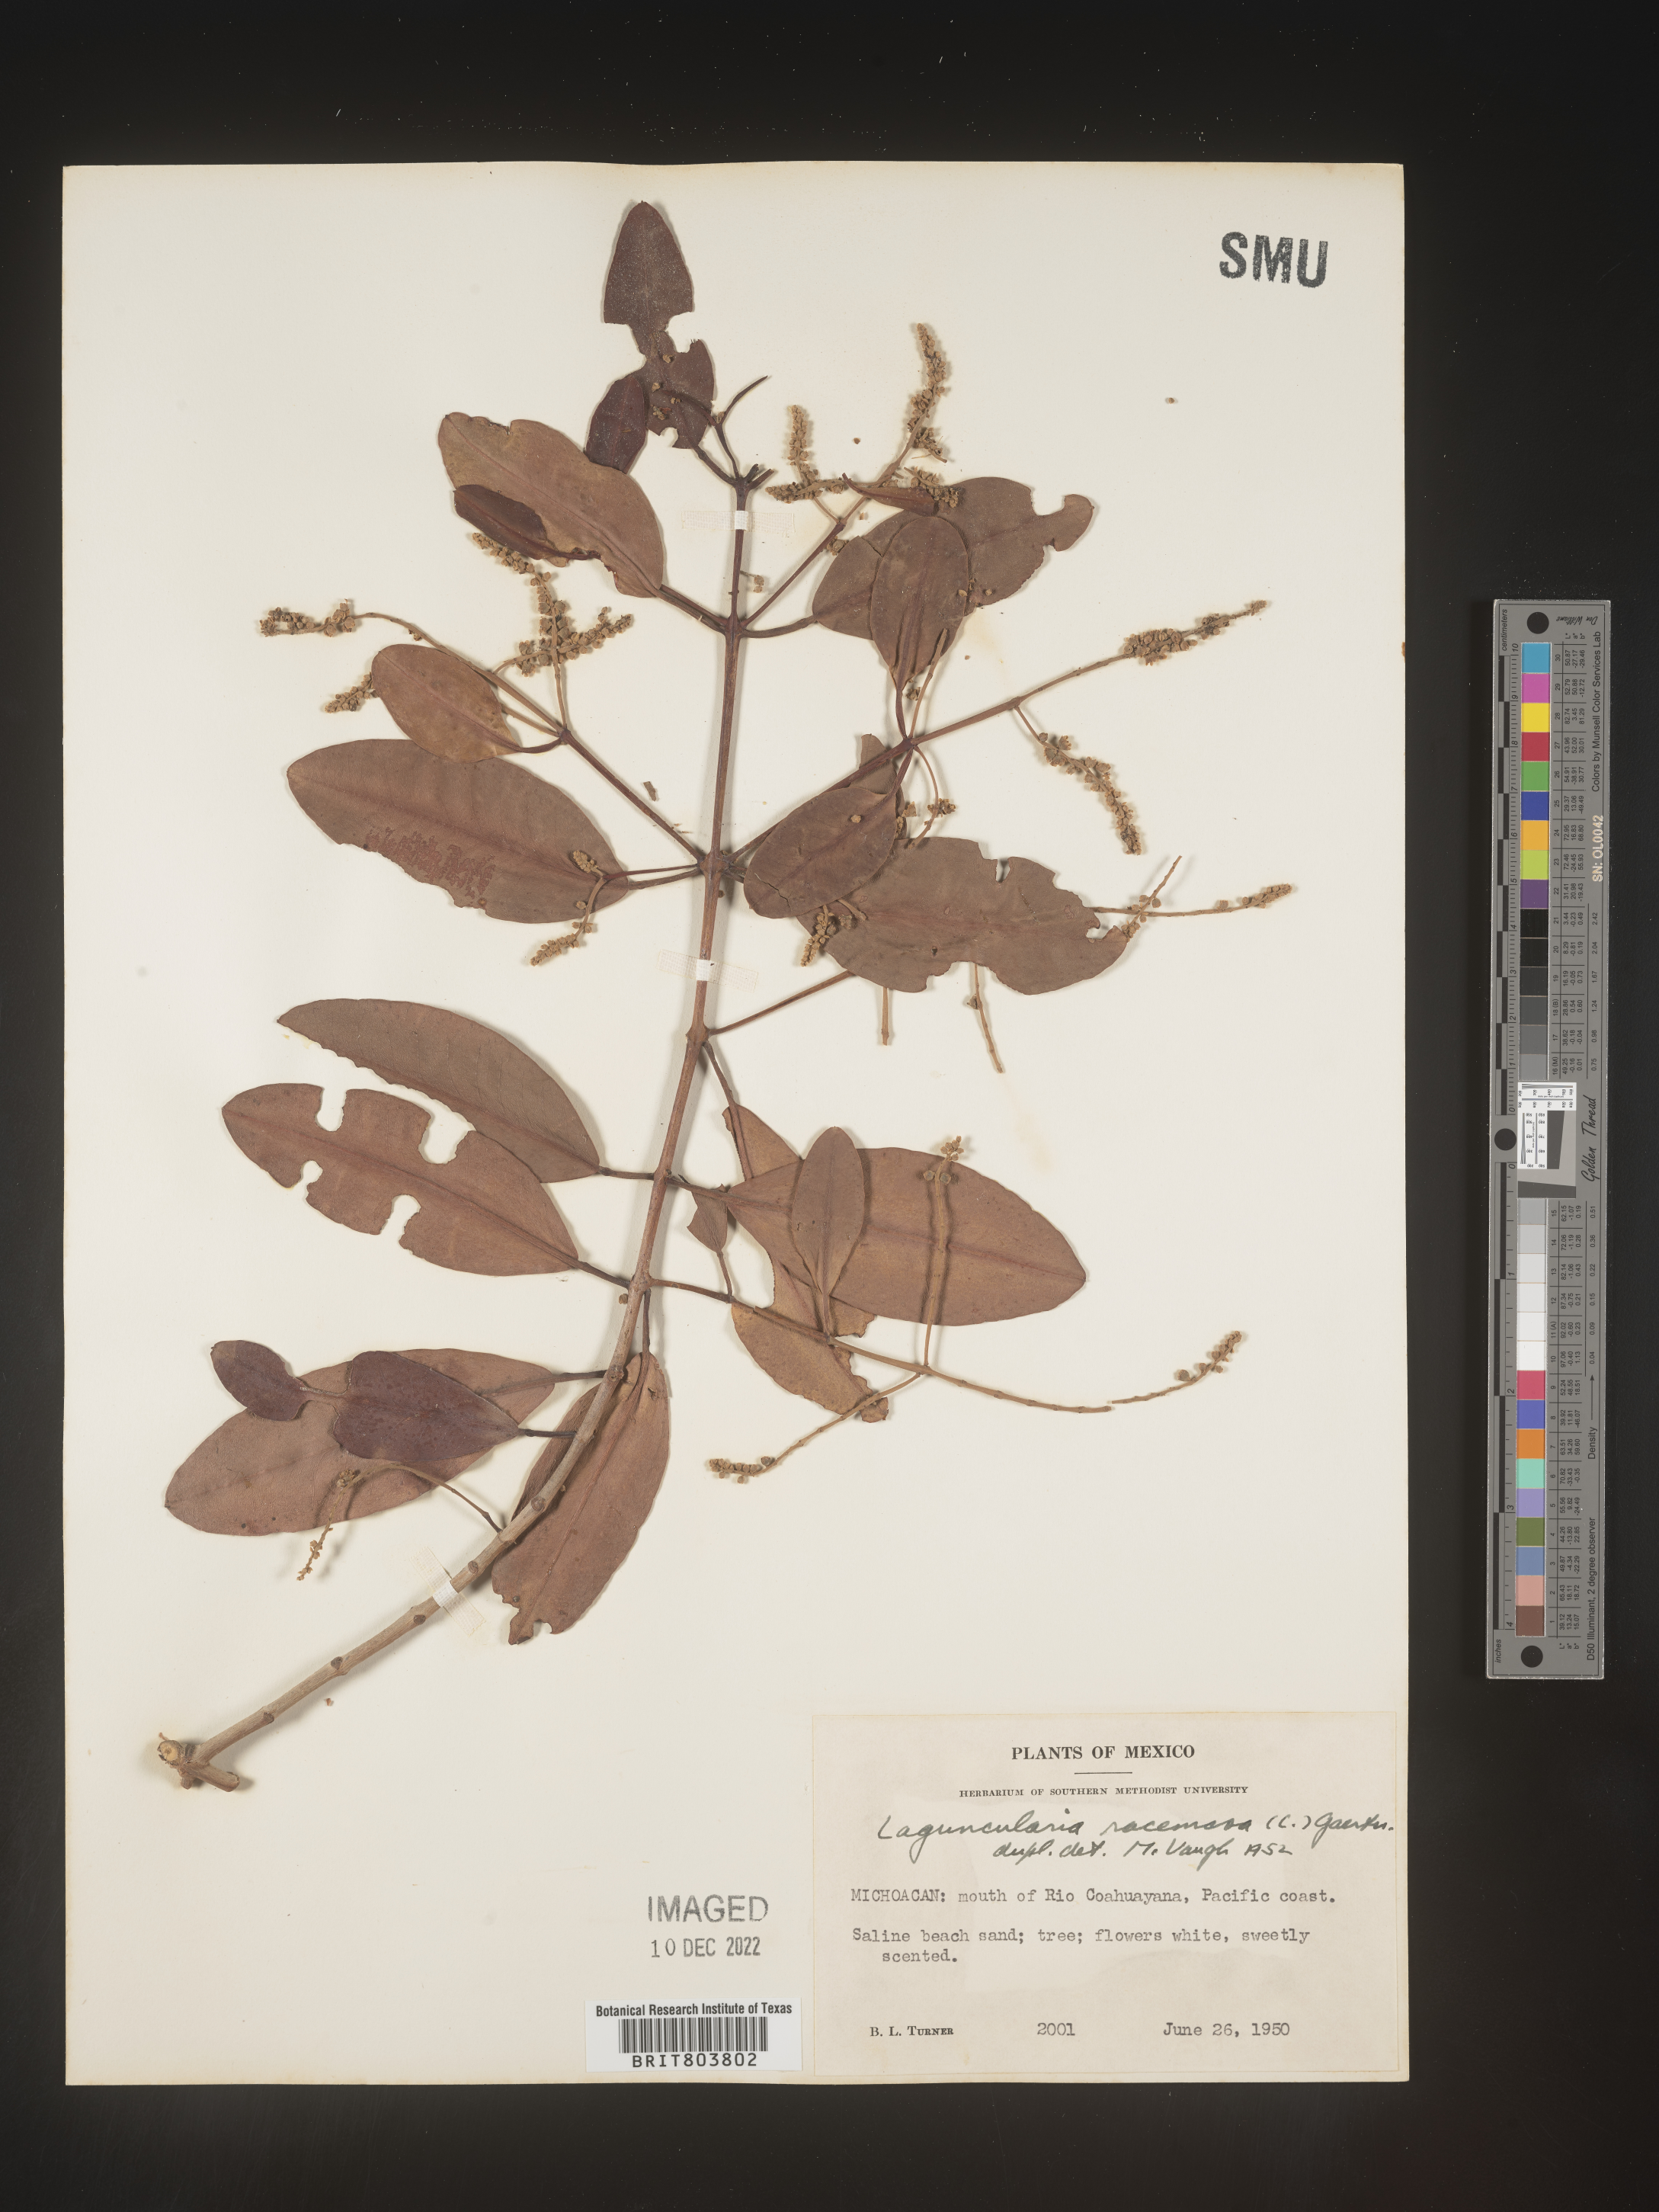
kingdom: Plantae
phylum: Tracheophyta
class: Magnoliopsida
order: Myrtales
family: Combretaceae
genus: Laguncularia
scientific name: Laguncularia
